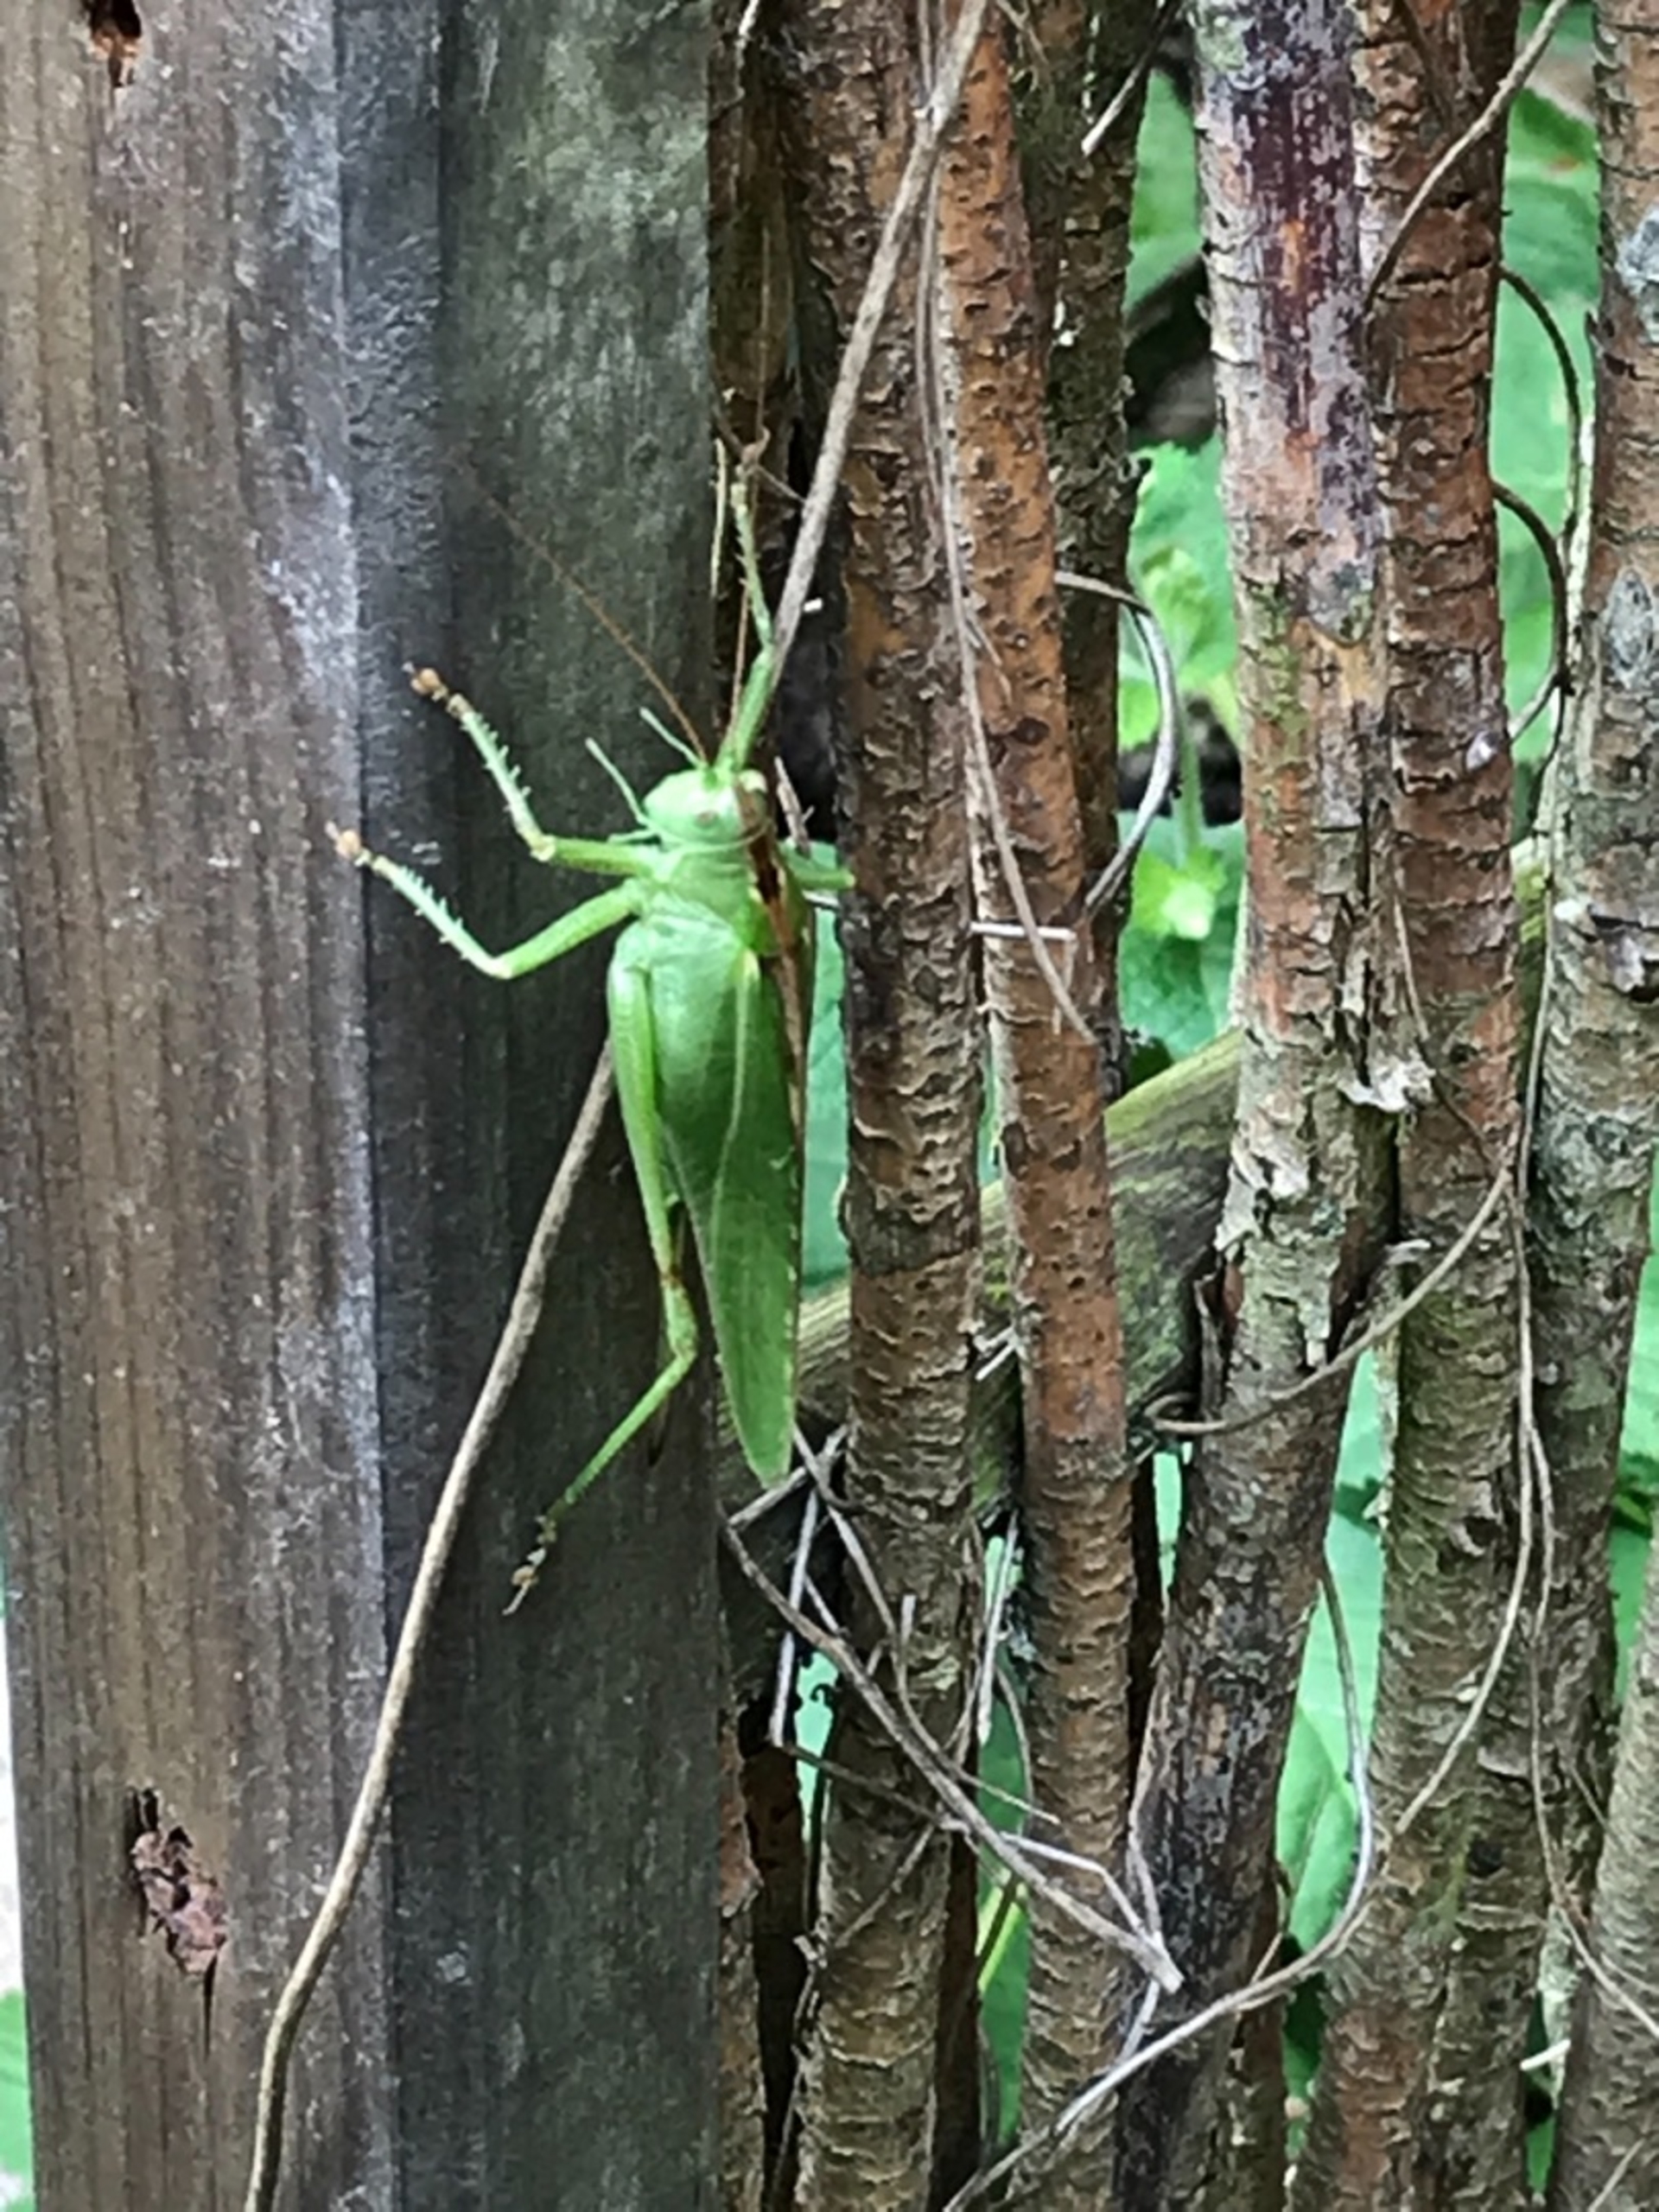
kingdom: Animalia
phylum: Arthropoda
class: Insecta
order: Orthoptera
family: Tettigoniidae
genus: Tettigonia
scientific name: Tettigonia viridissima
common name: Stor grøn løvgræshoppe
